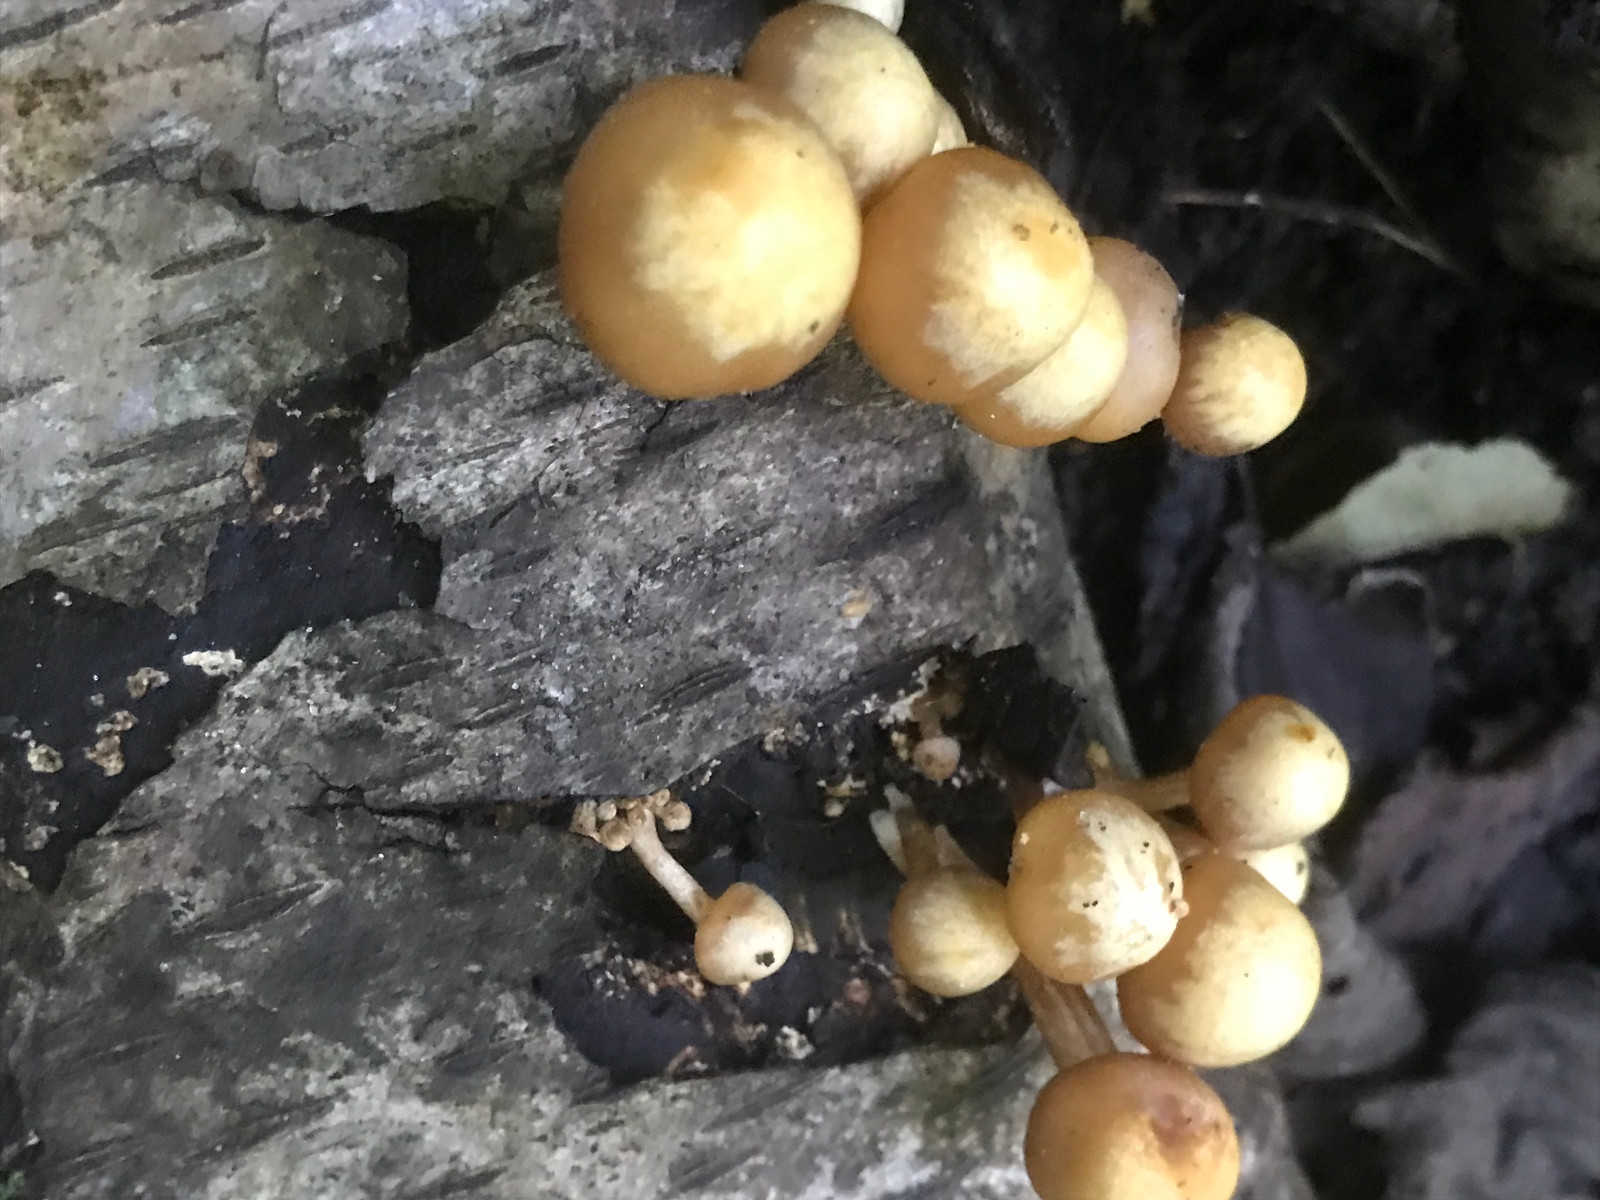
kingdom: Fungi
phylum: Basidiomycota
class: Agaricomycetes
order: Agaricales
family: Strophariaceae
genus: Kuehneromyces
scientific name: Kuehneromyces
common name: skælhat
